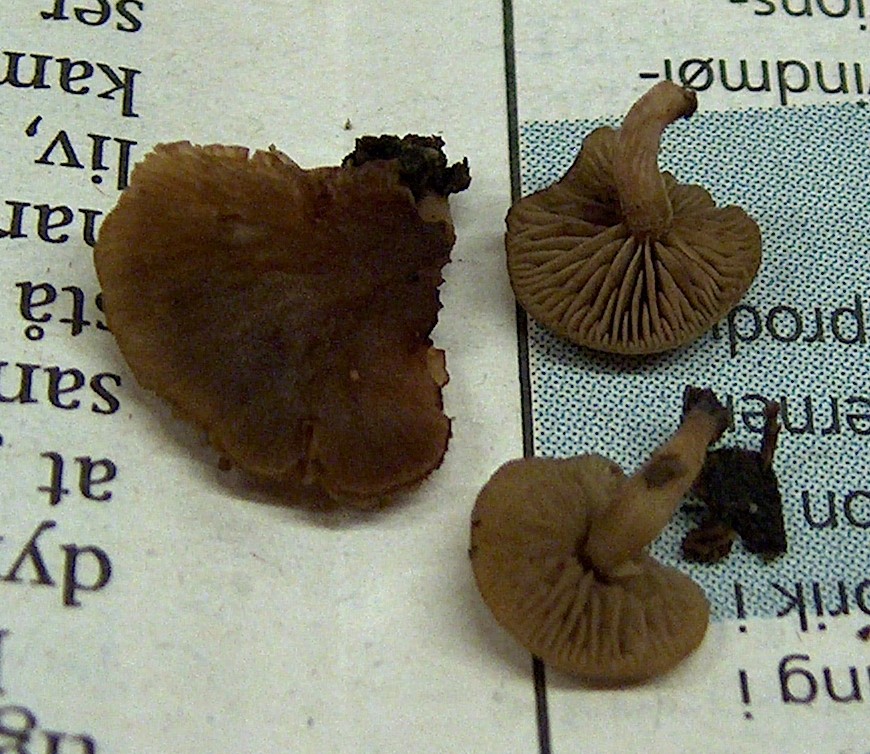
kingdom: Fungi
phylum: Basidiomycota
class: Agaricomycetes
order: Agaricales
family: Crepidotaceae
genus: Simocybe
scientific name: Simocybe haustellaris
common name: skæv skyggehat
